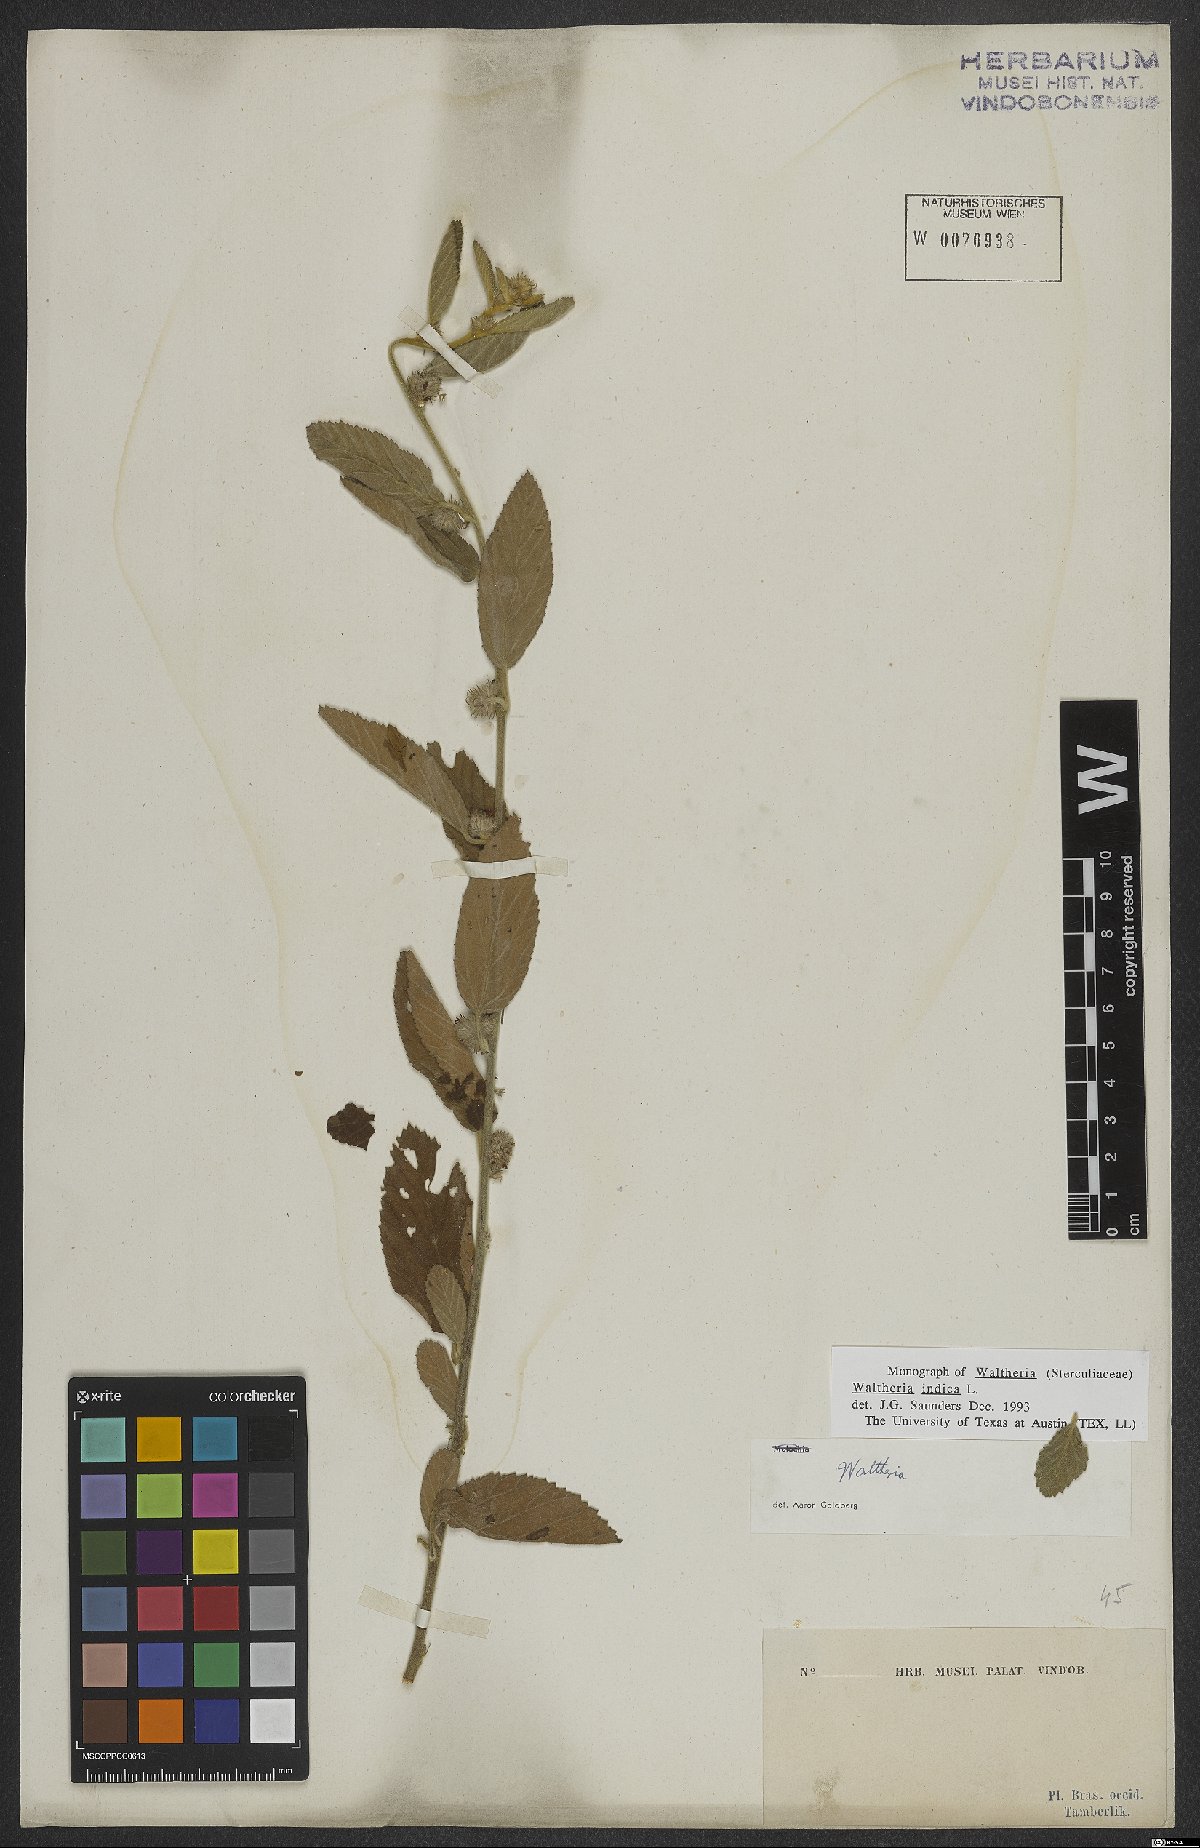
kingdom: Plantae
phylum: Tracheophyta
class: Magnoliopsida
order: Malvales
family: Malvaceae
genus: Waltheria
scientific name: Waltheria indica
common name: Leather-coat
